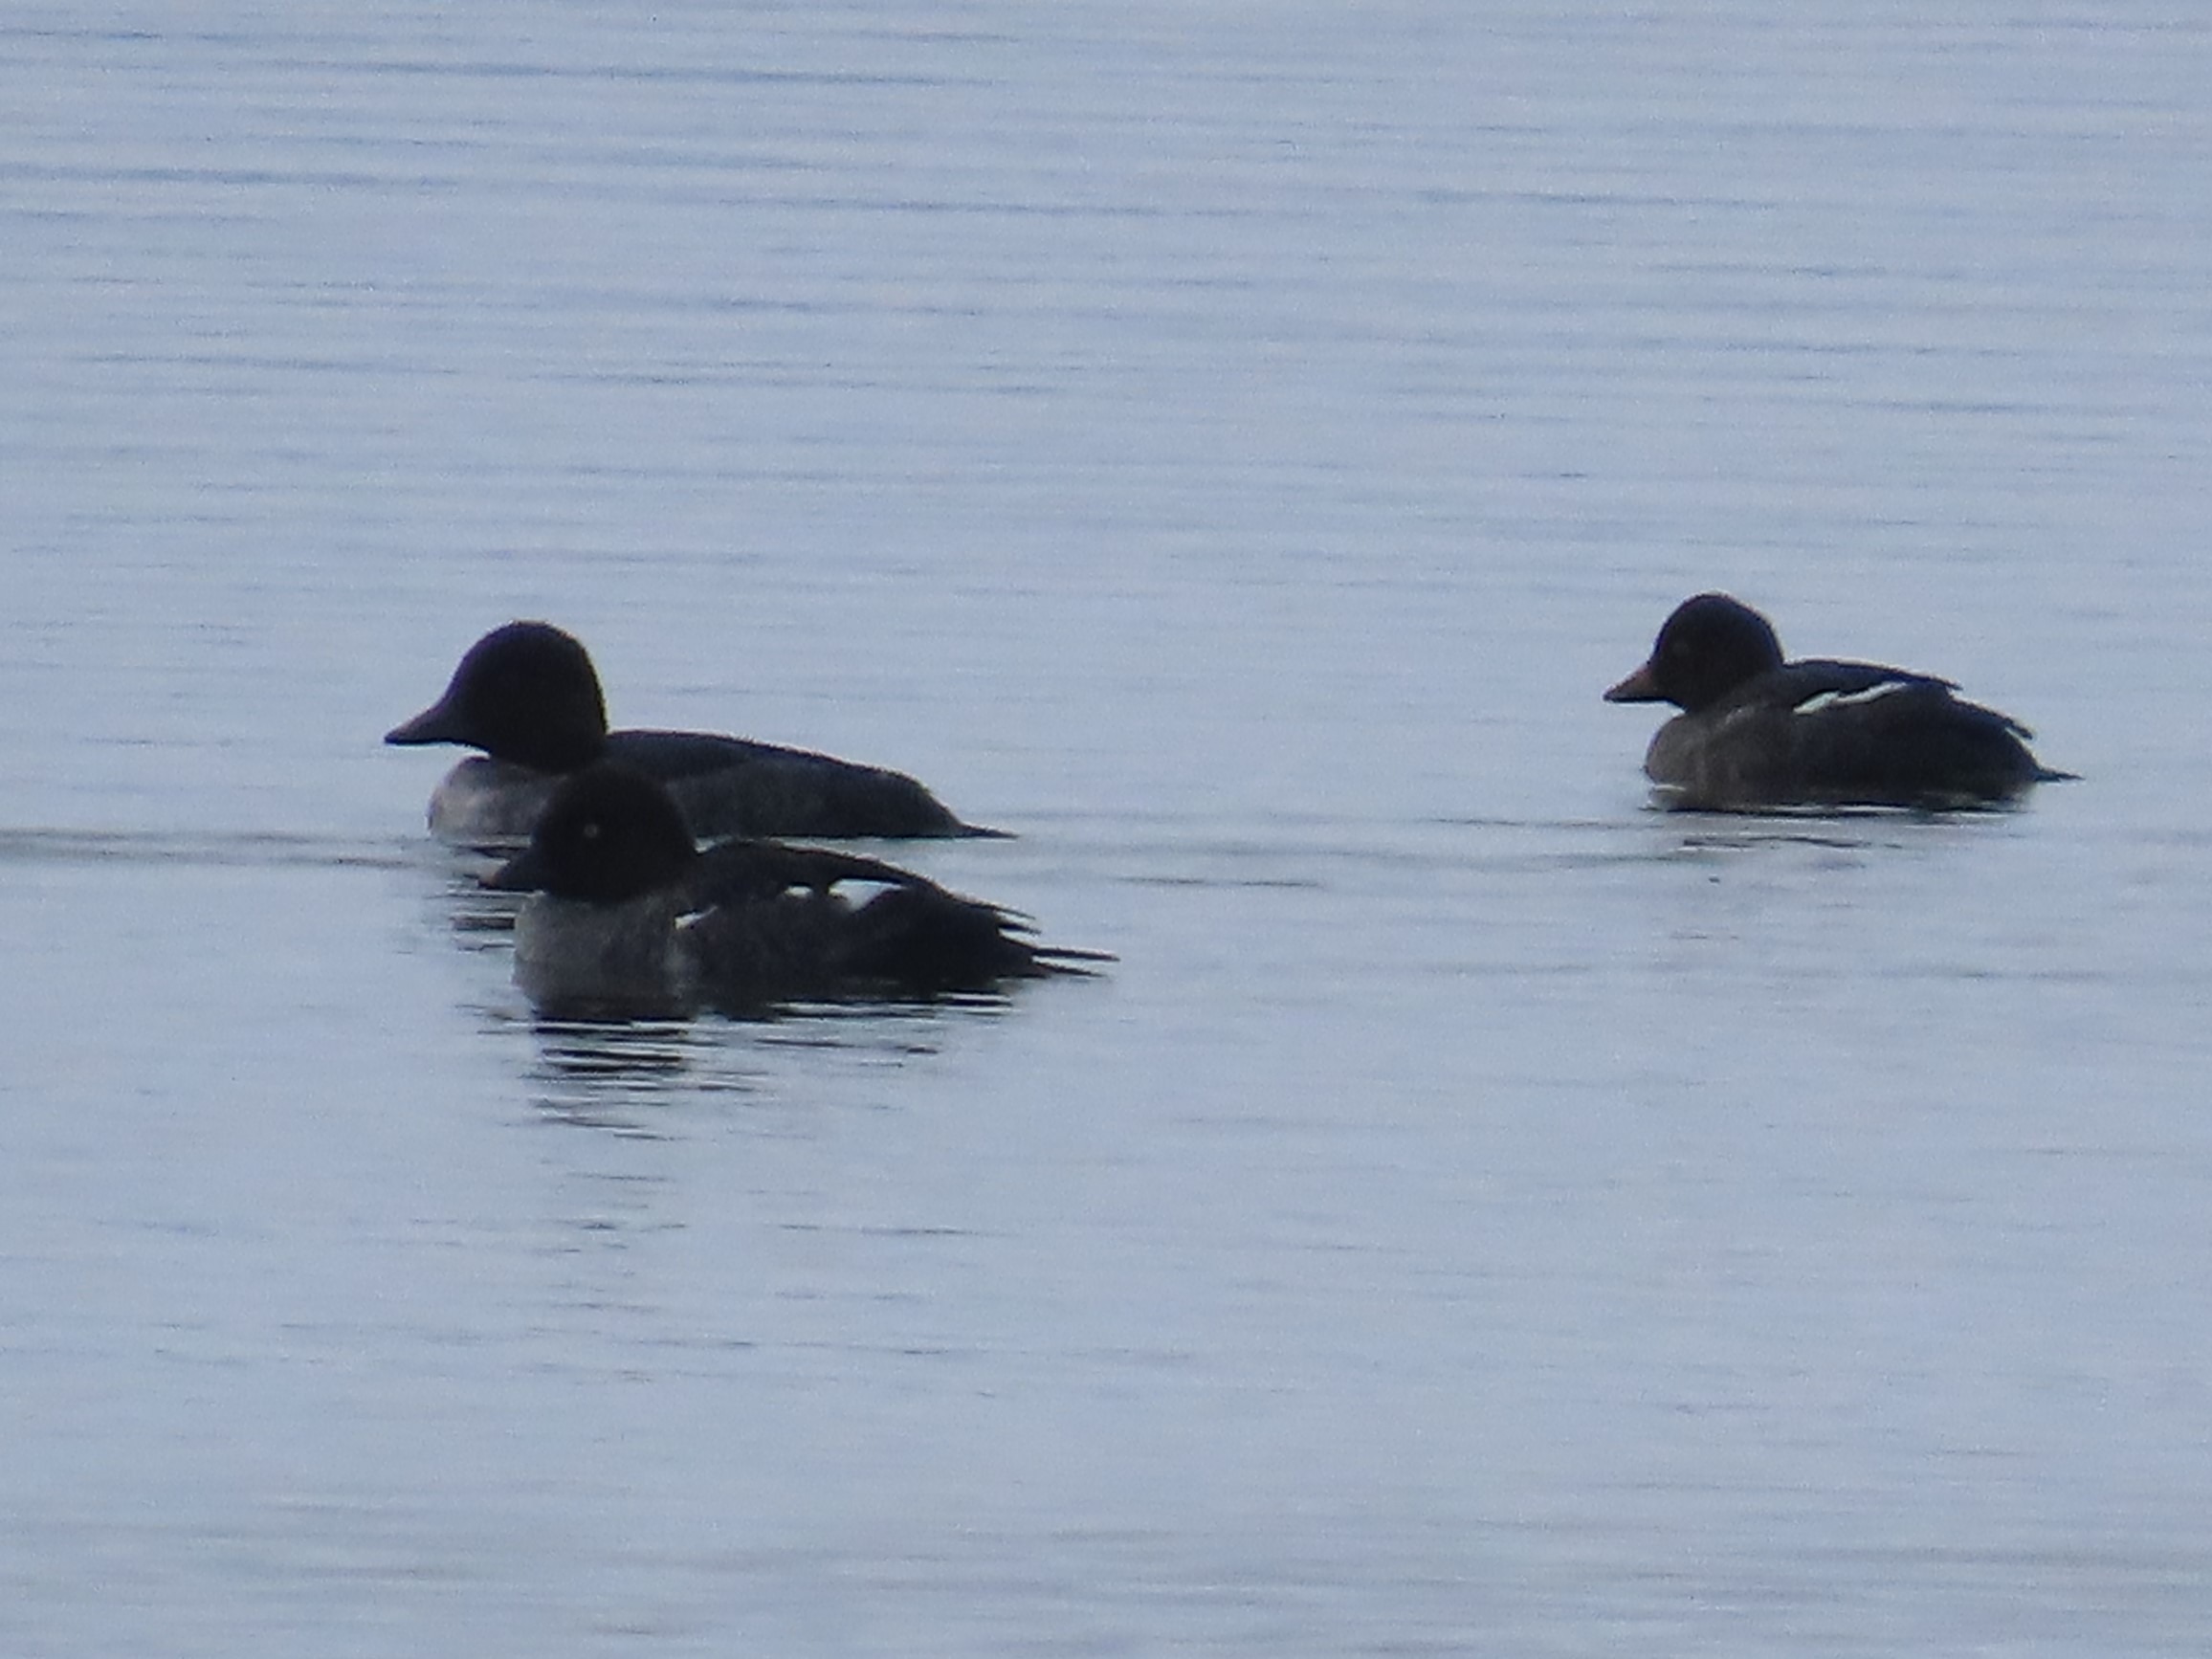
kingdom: Animalia
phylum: Chordata
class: Aves
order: Anseriformes
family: Anatidae
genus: Bucephala
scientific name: Bucephala clangula
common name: Hvinand
